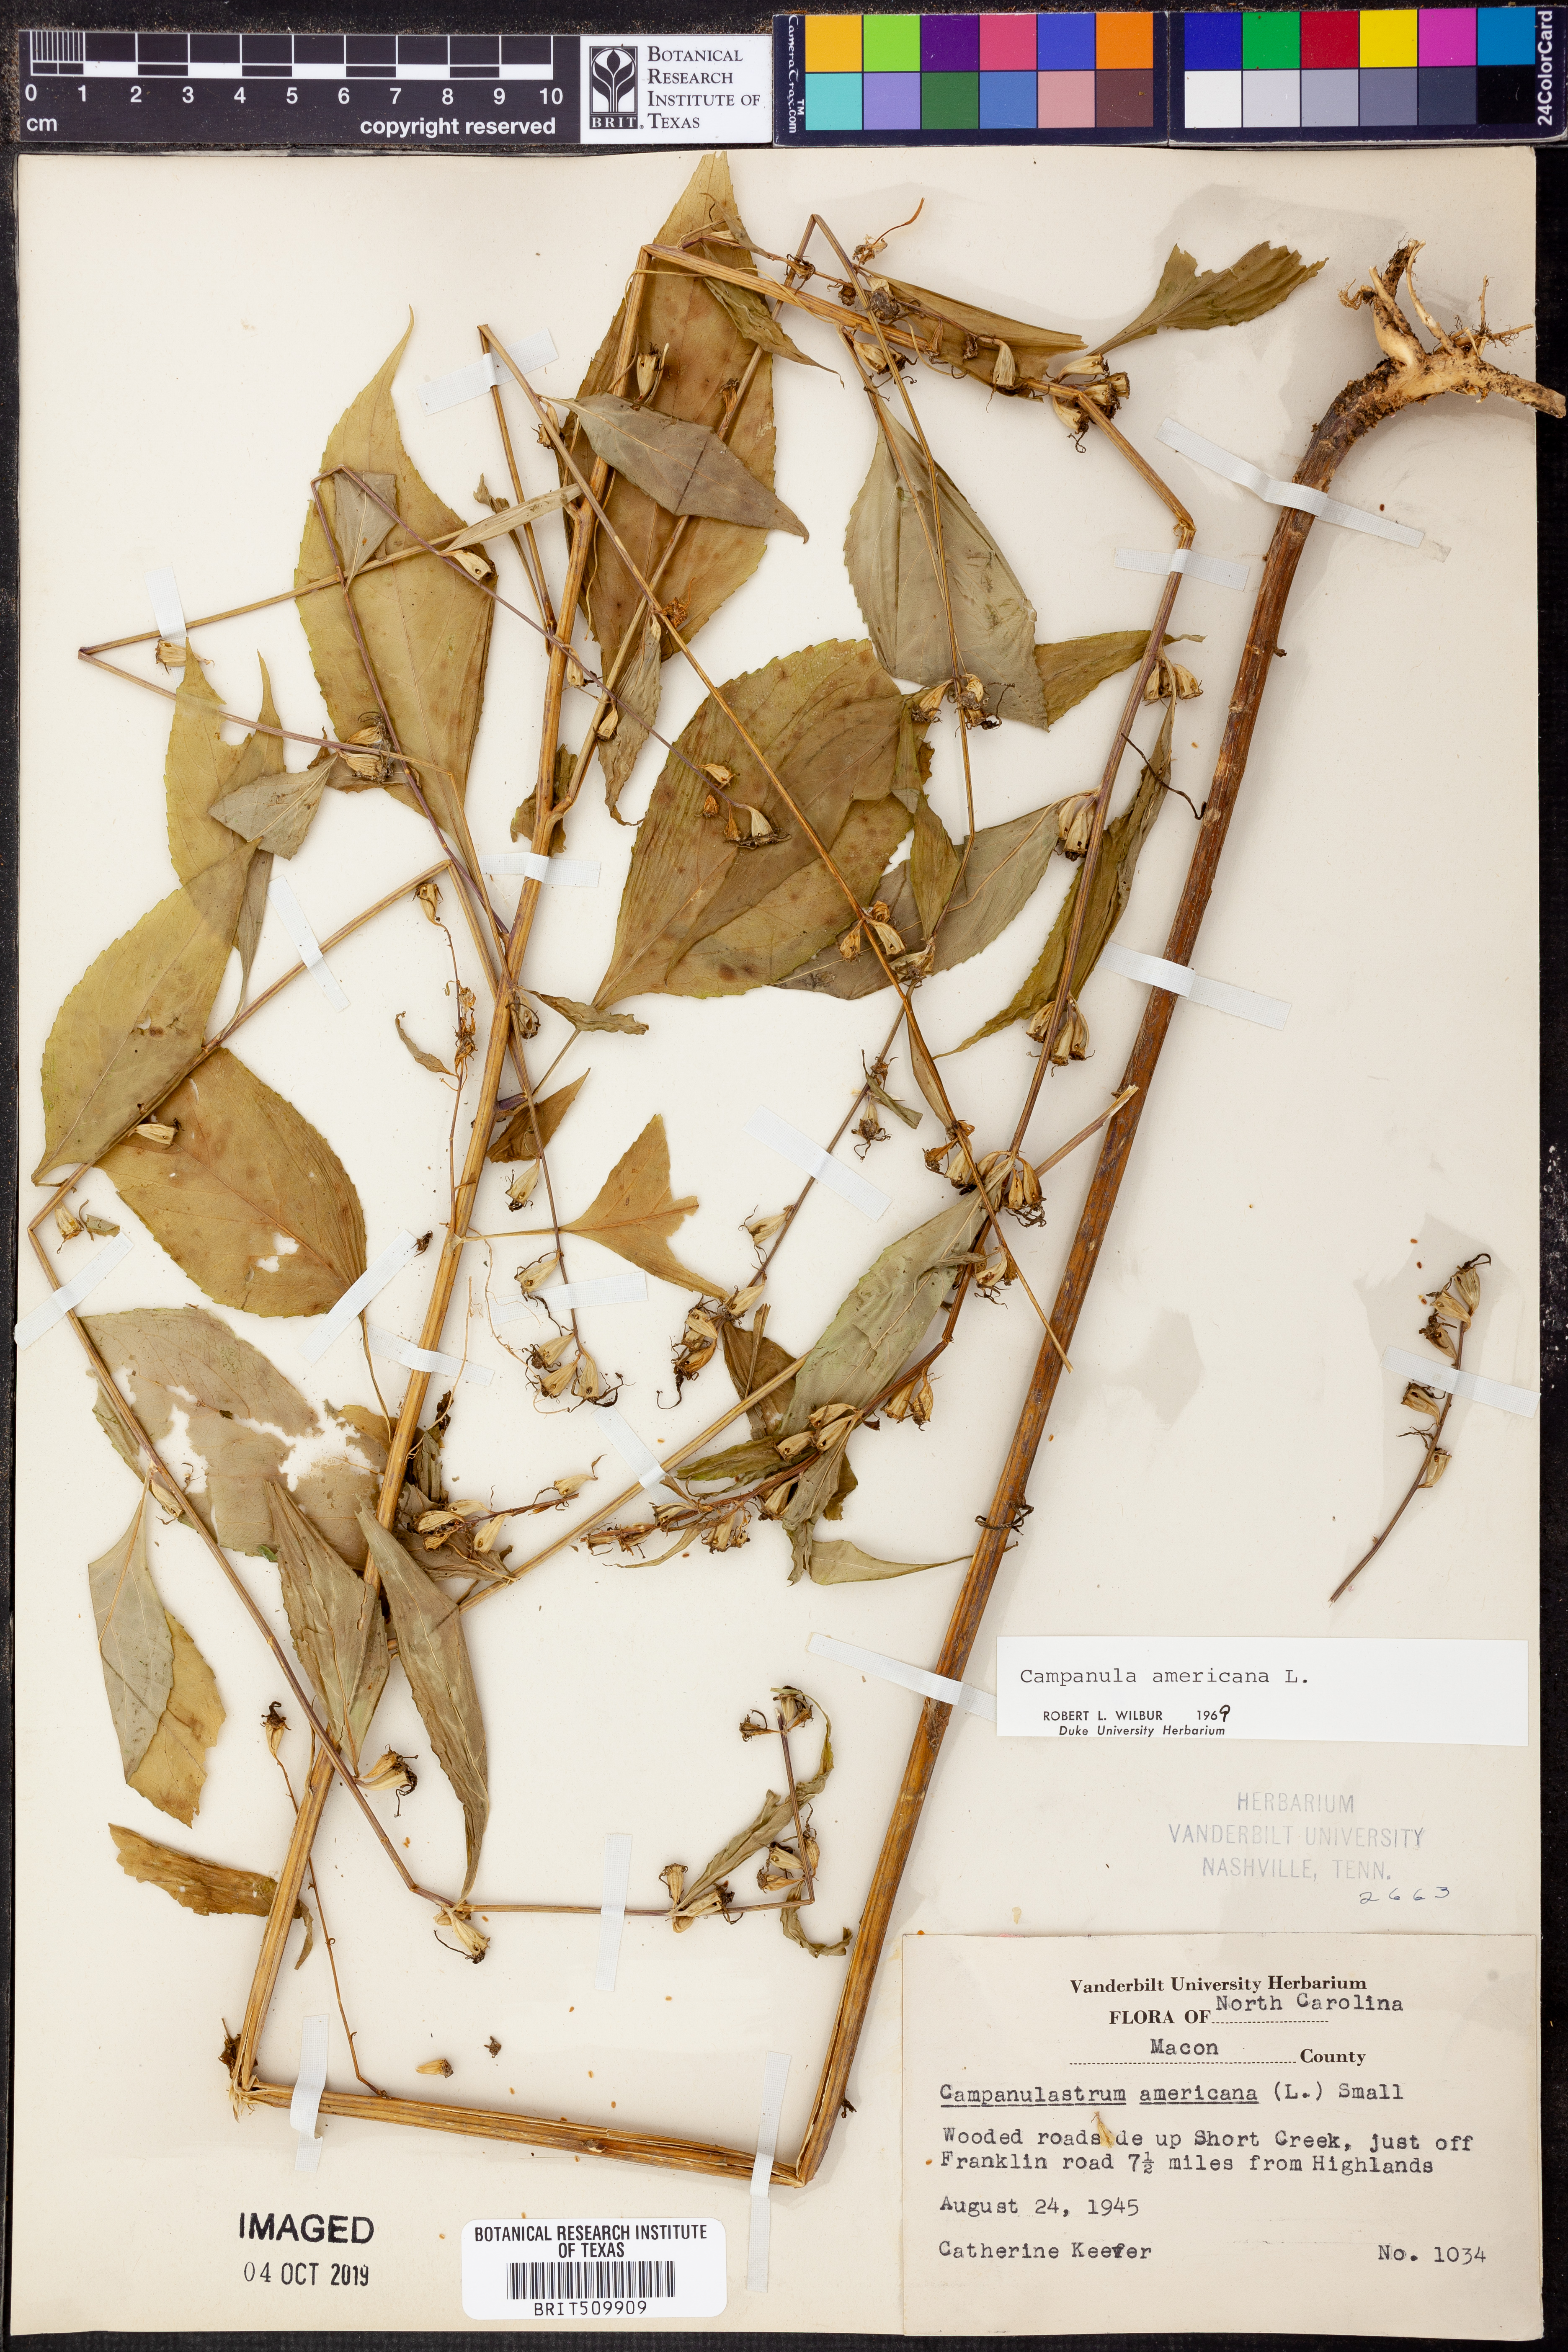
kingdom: Plantae
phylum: Tracheophyta
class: Magnoliopsida
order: Asterales
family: Campanulaceae
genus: Campanula
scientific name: Campanula americana
